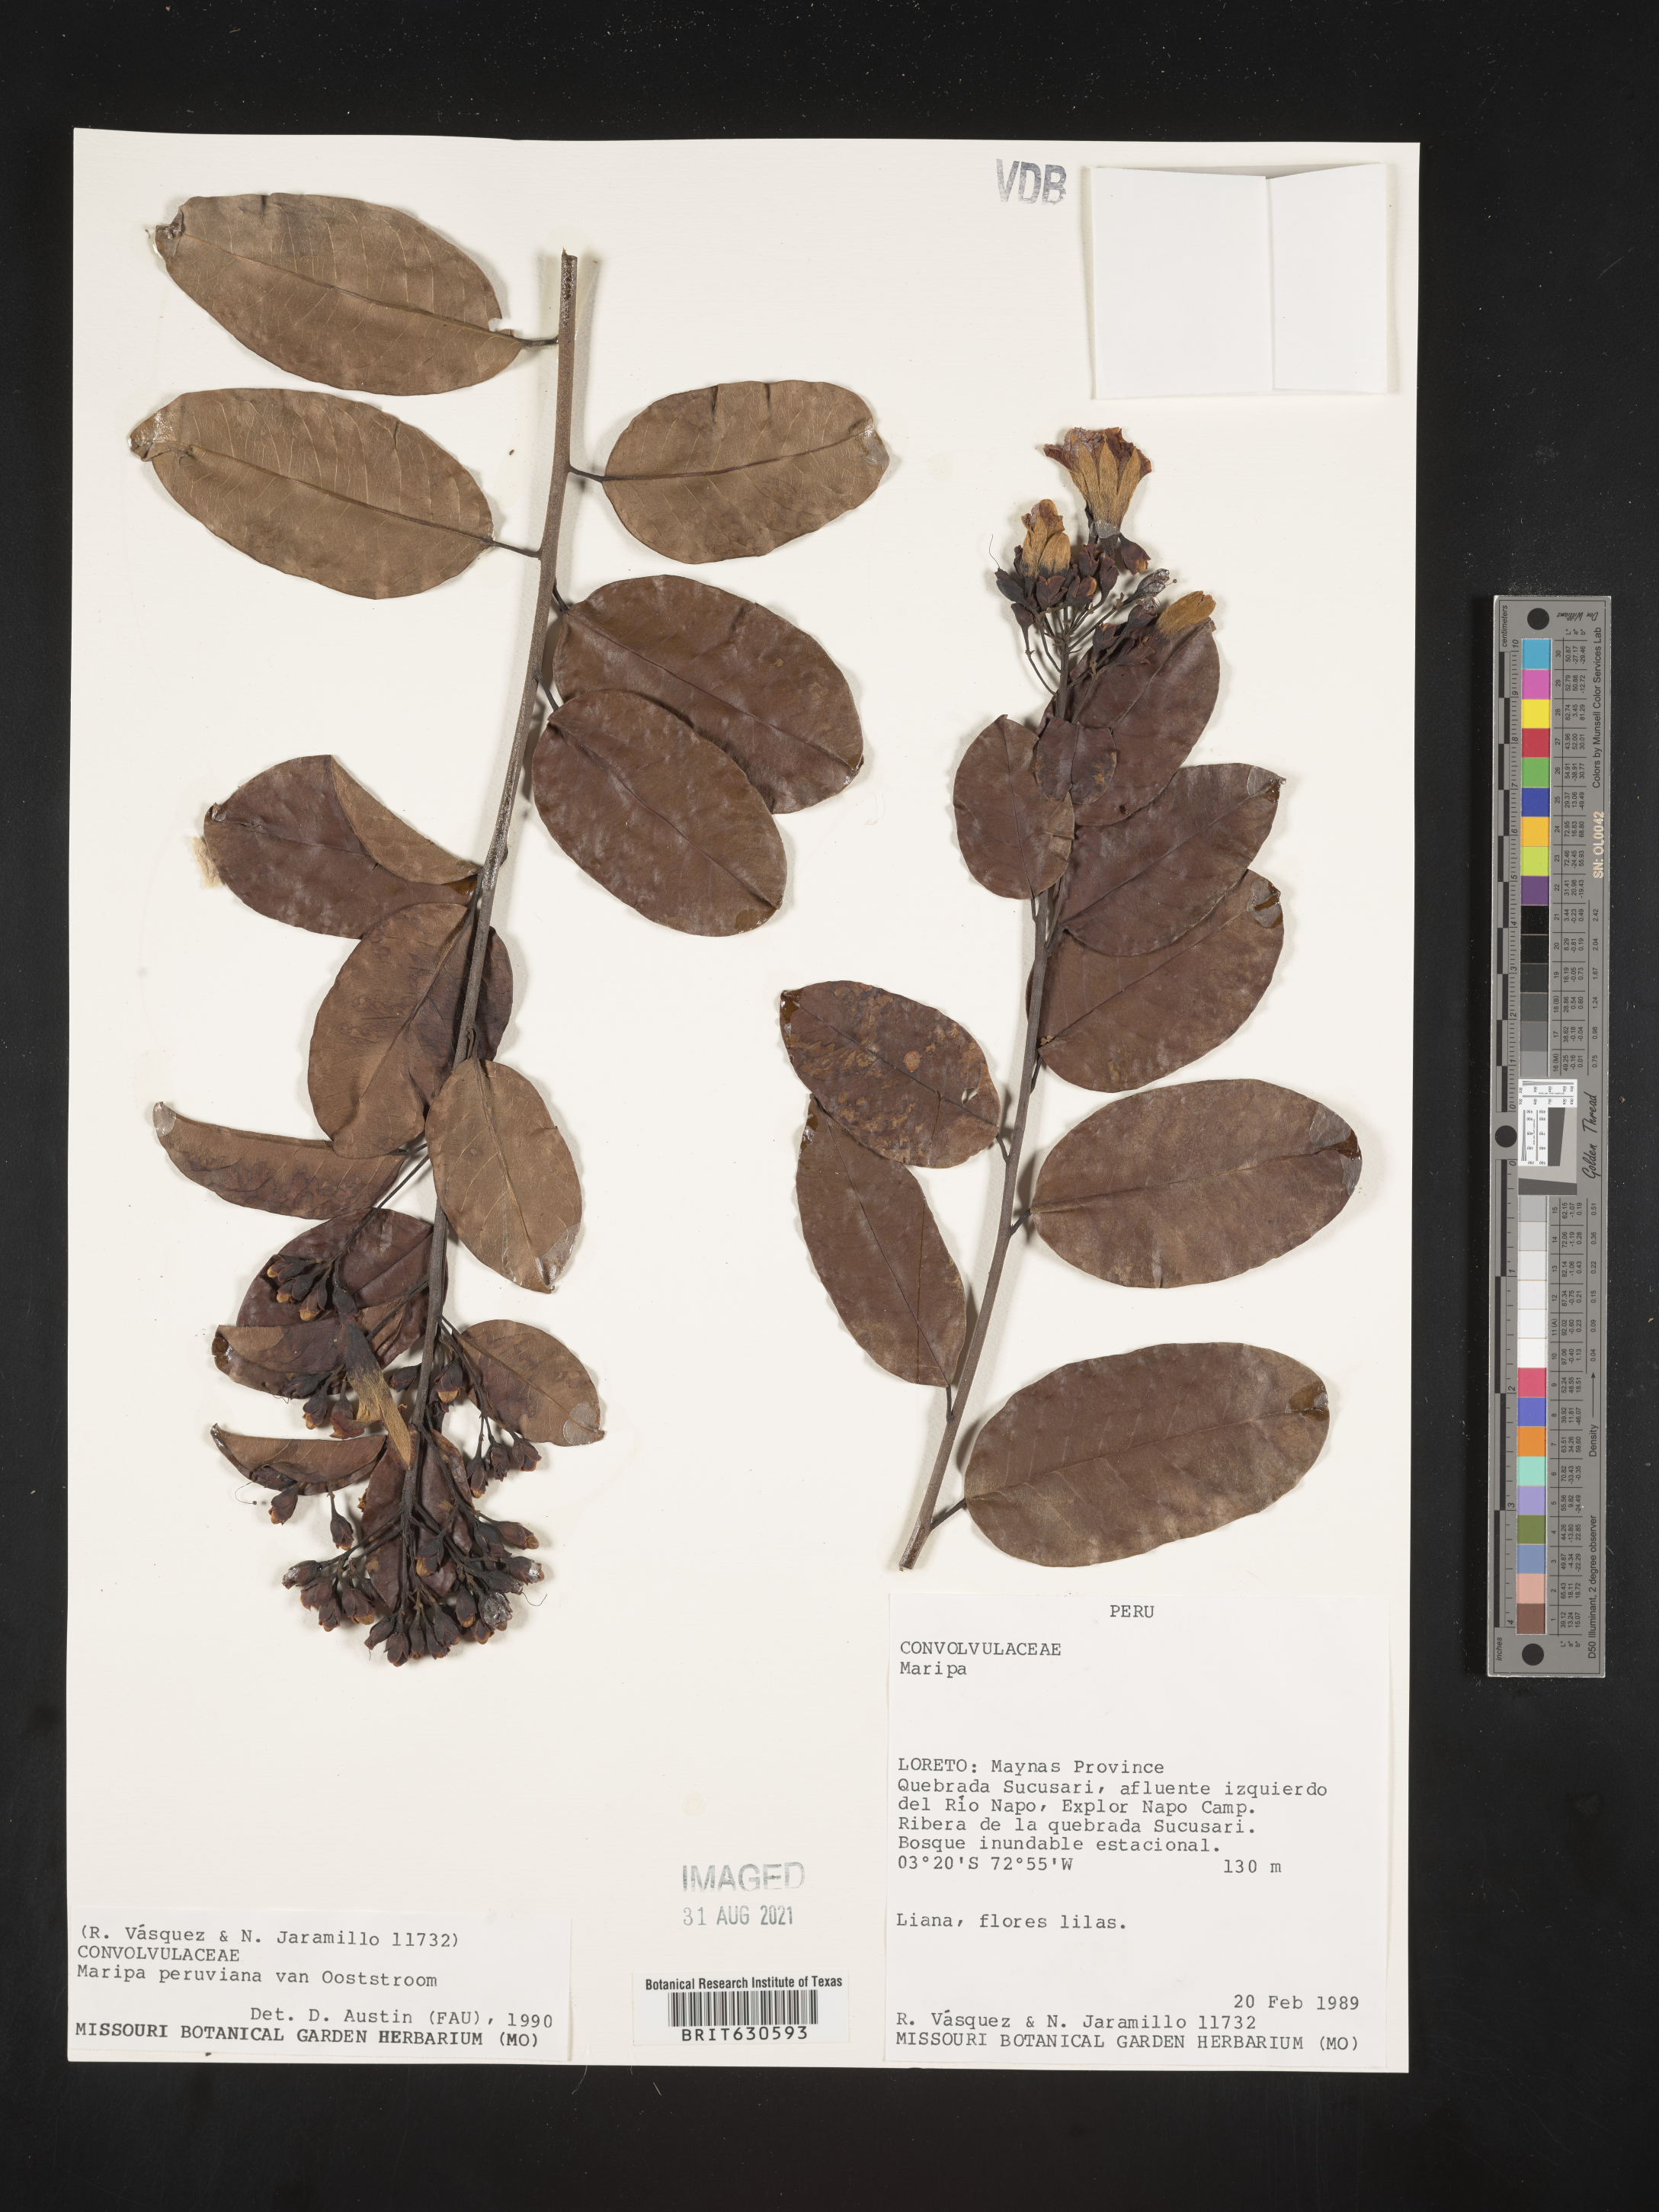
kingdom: Plantae
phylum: Tracheophyta
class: Magnoliopsida
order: Solanales
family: Convolvulaceae
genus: Maripa
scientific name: Maripa peruviana
